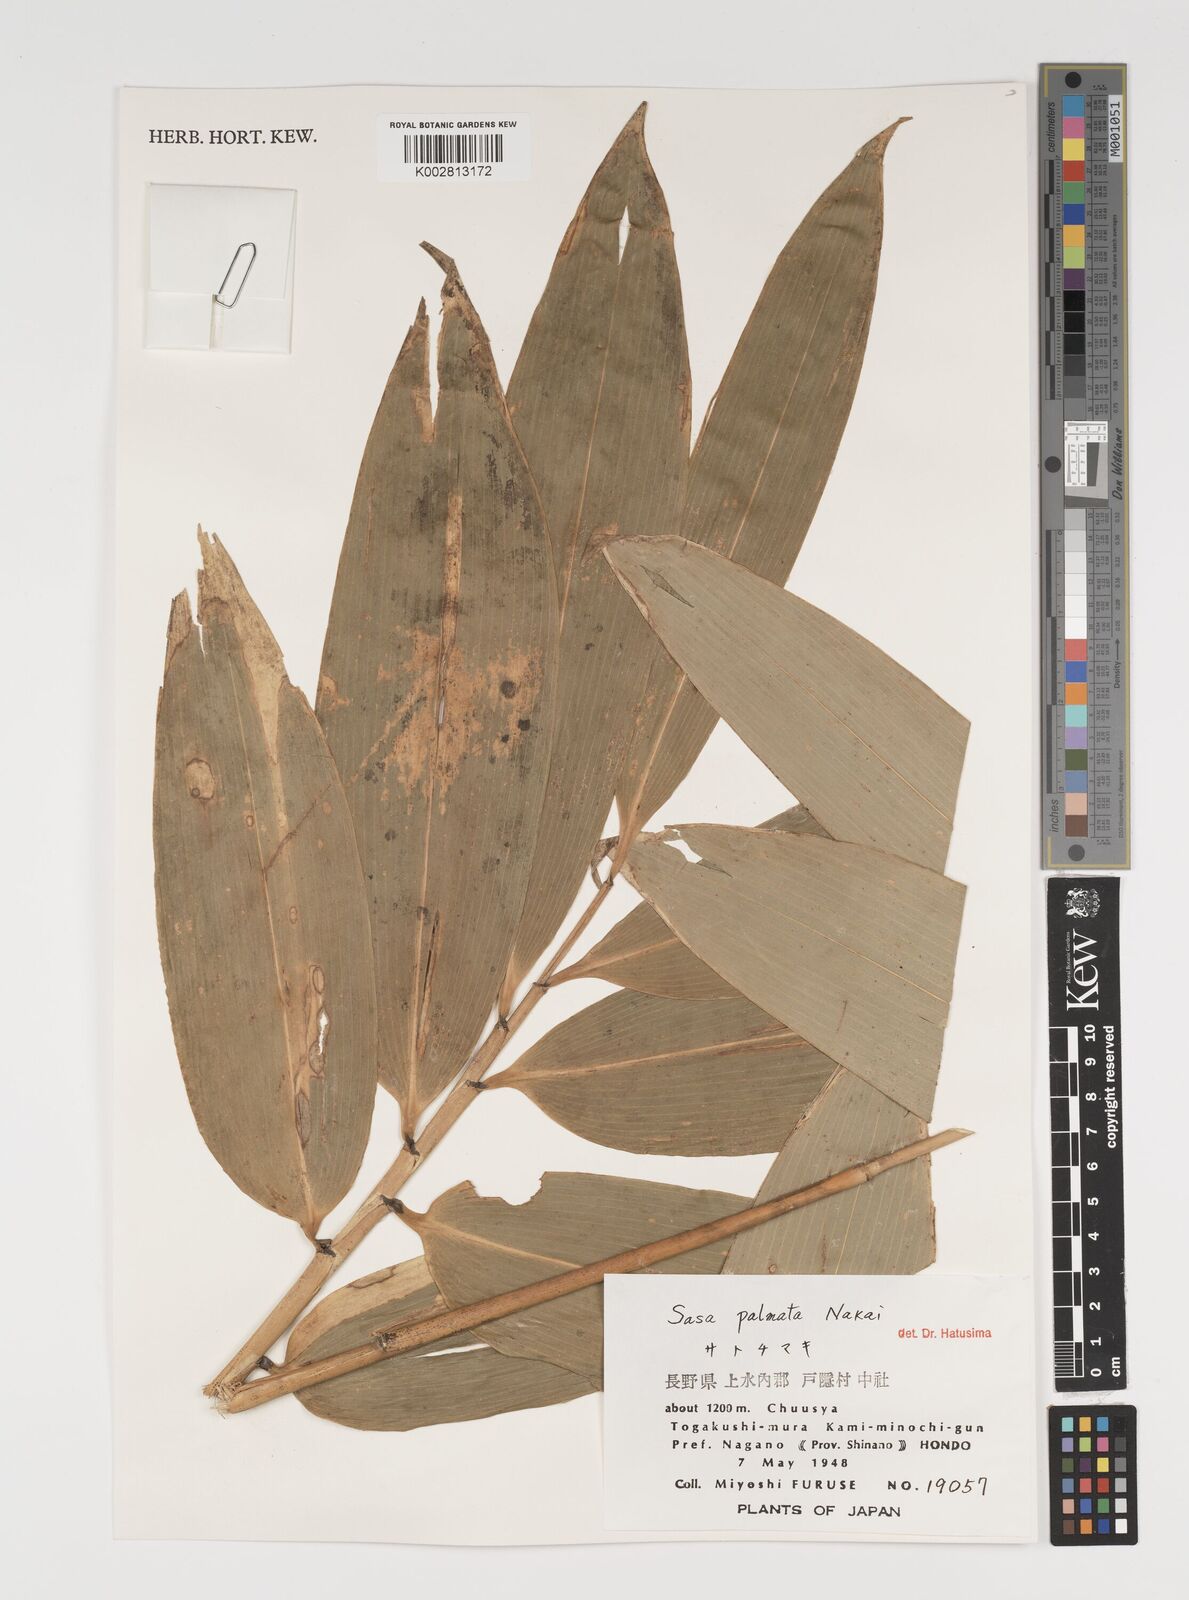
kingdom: Plantae
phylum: Tracheophyta
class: Liliopsida
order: Poales
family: Poaceae
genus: Sasa
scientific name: Sasa palmata
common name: Broad-leaved bamboo
